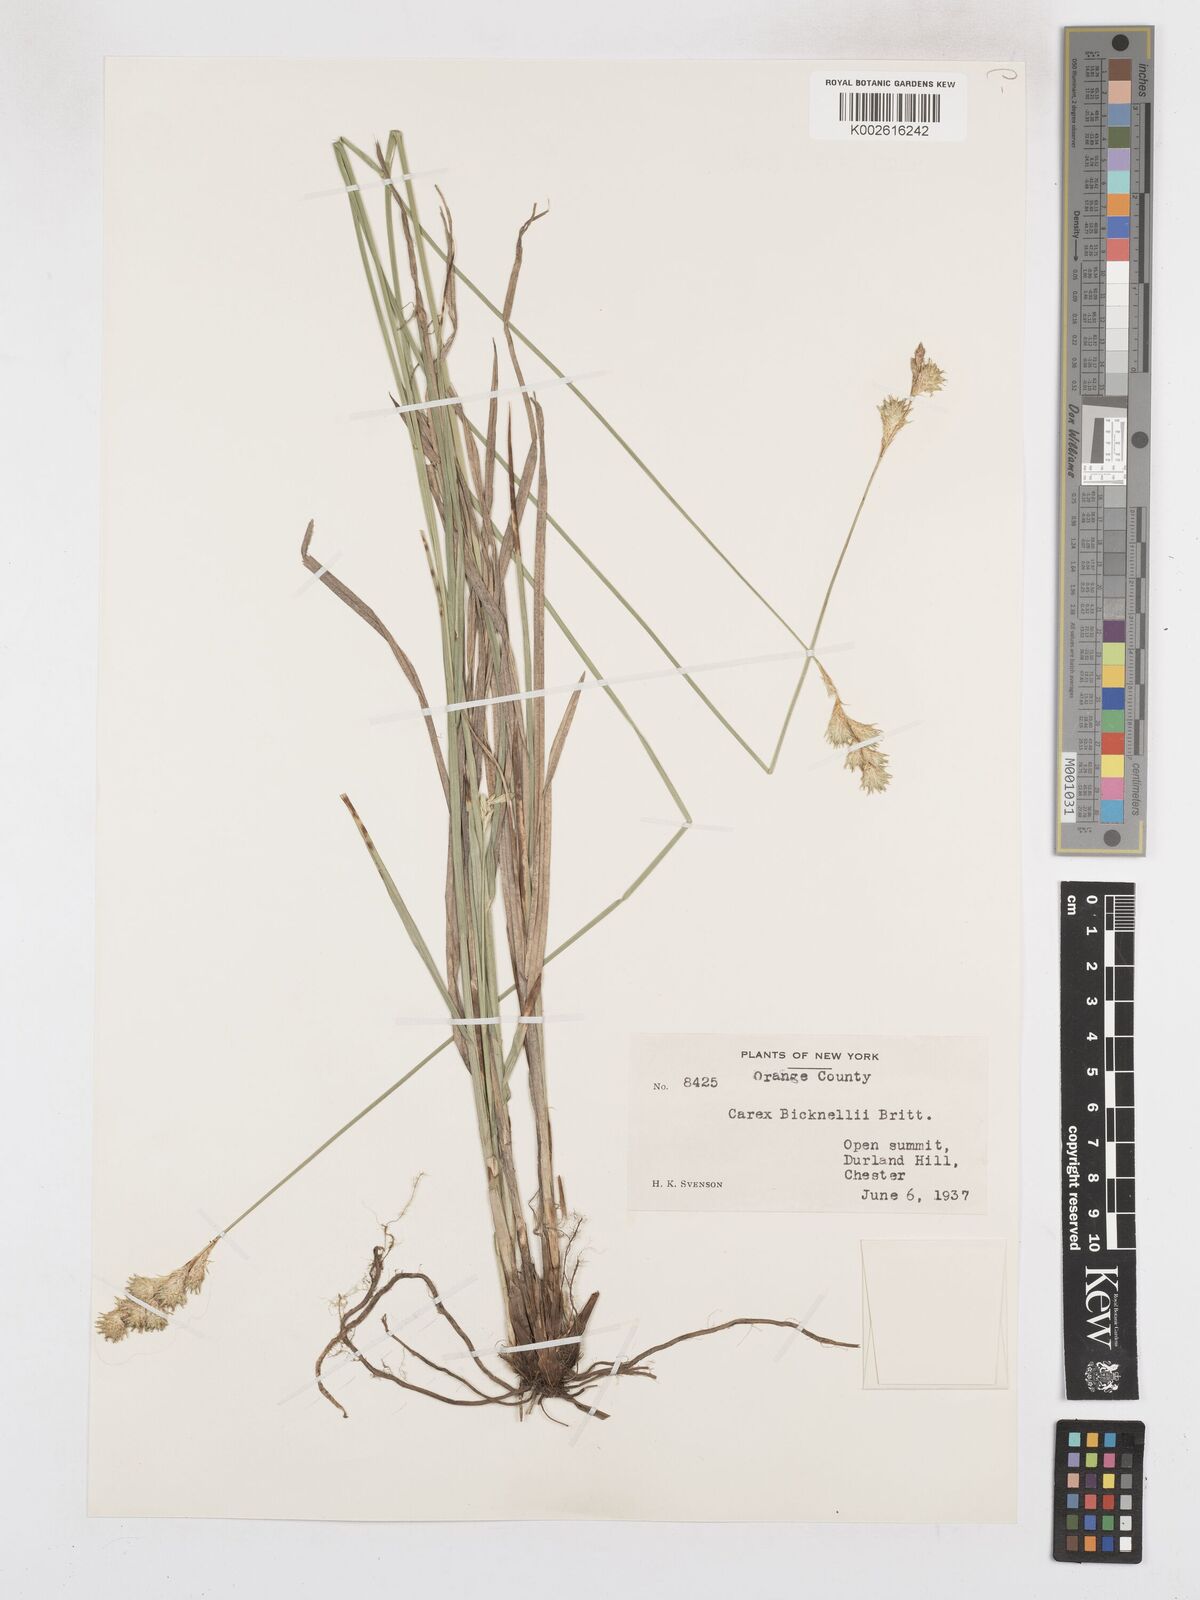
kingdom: Plantae
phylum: Tracheophyta
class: Liliopsida
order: Poales
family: Cyperaceae
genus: Carex
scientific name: Carex bicknellii
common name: Bicknell's sedge
